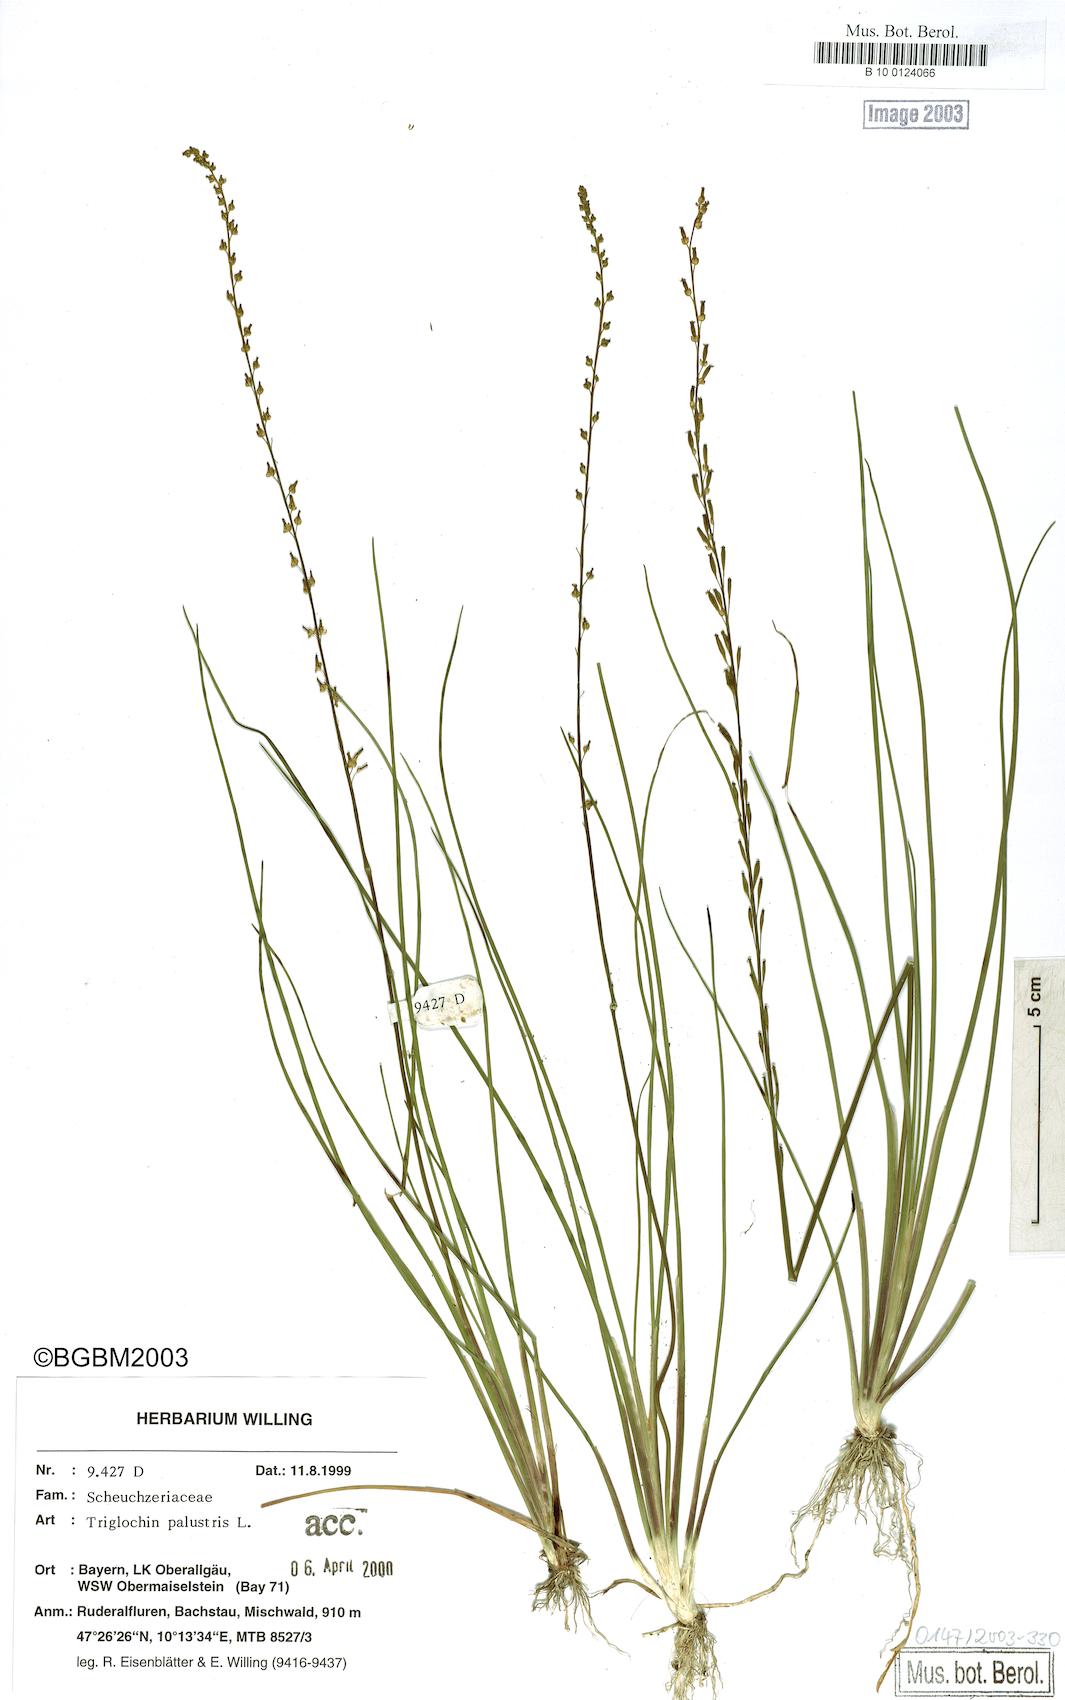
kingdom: Plantae
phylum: Tracheophyta
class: Liliopsida
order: Alismatales
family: Juncaginaceae
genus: Triglochin
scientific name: Triglochin palustris
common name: Marsh arrowgrass
